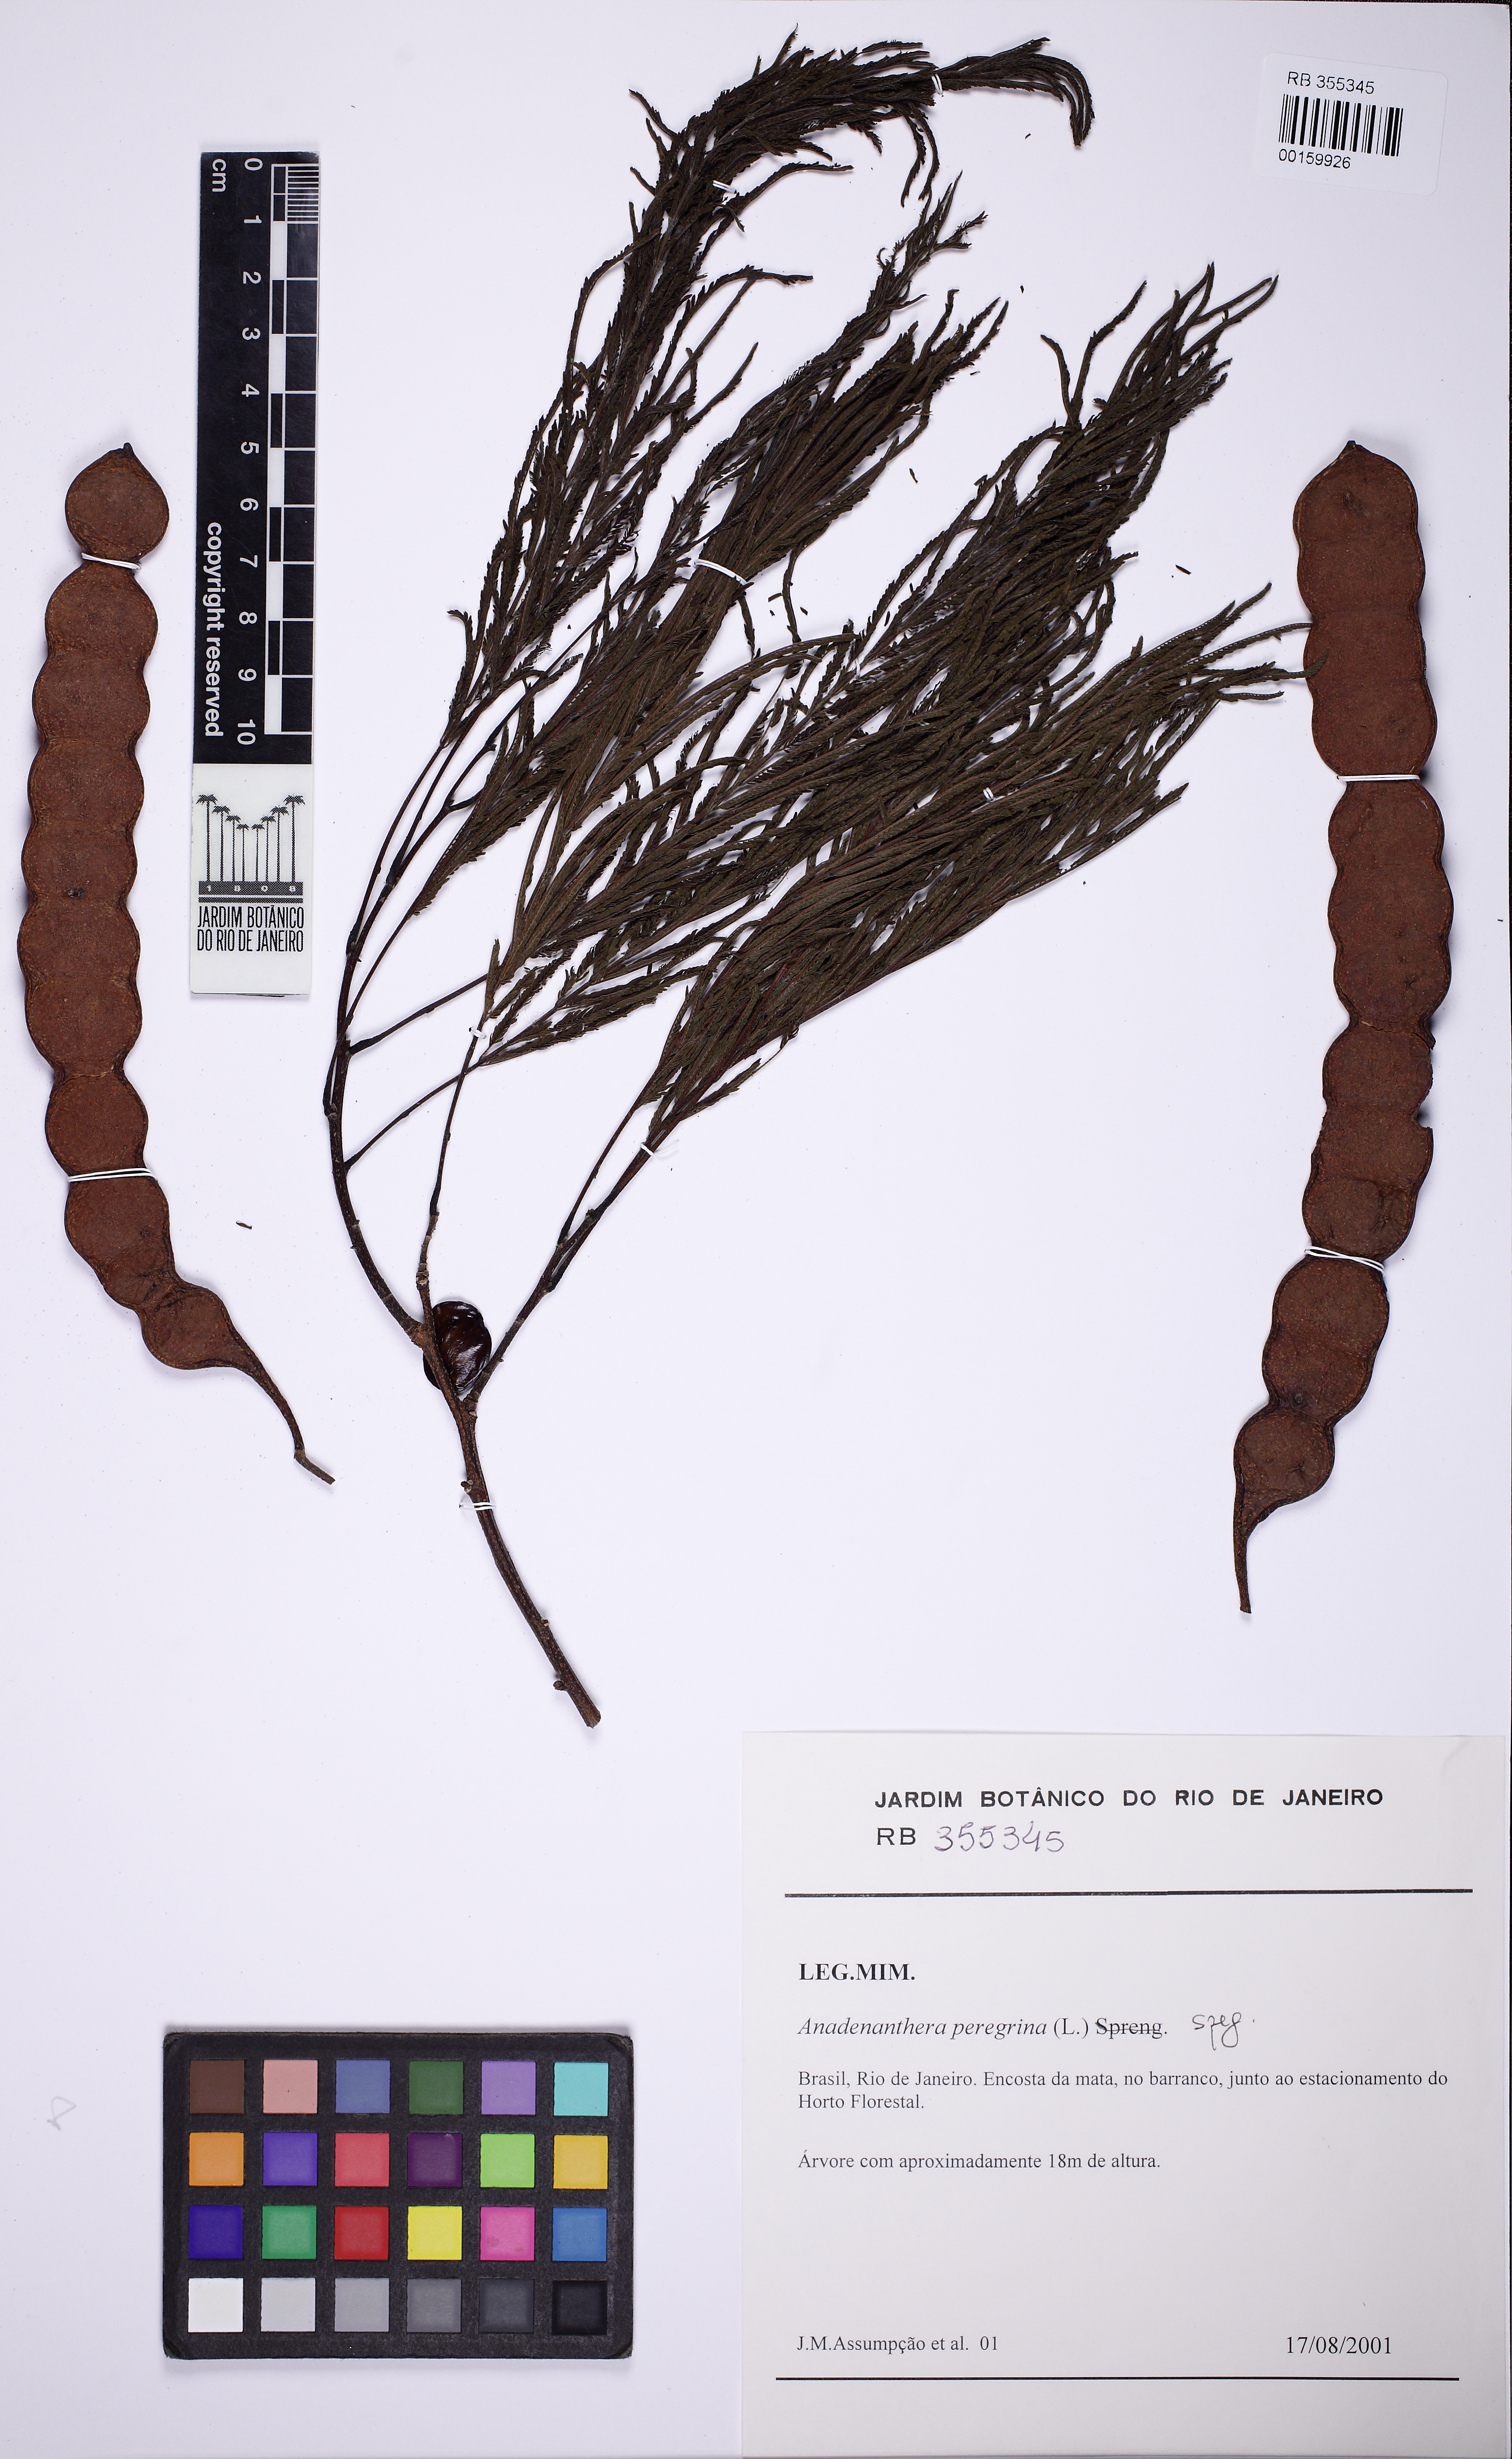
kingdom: Plantae
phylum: Tracheophyta
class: Magnoliopsida
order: Fabales
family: Fabaceae
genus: Anadenanthera
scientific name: Anadenanthera peregrina
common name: Cohoba
